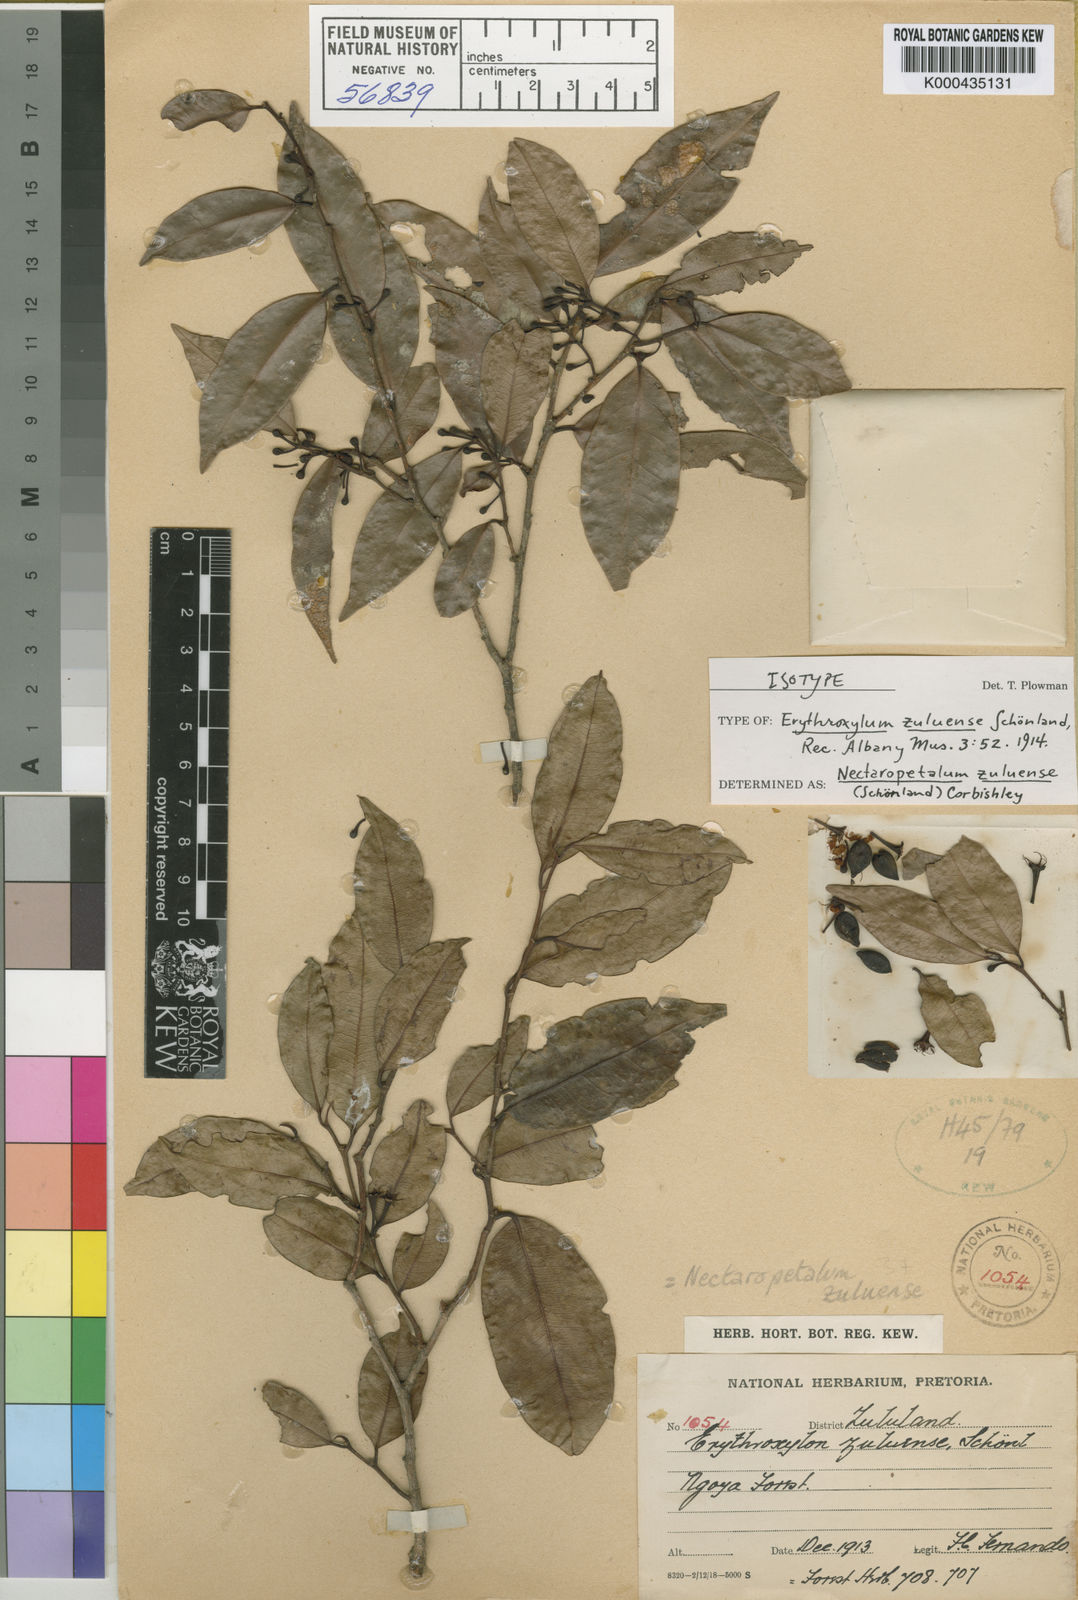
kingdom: Plantae
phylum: Tracheophyta
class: Magnoliopsida
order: Malpighiales
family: Erythroxylaceae
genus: Nectaropetalum
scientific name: Nectaropetalum
